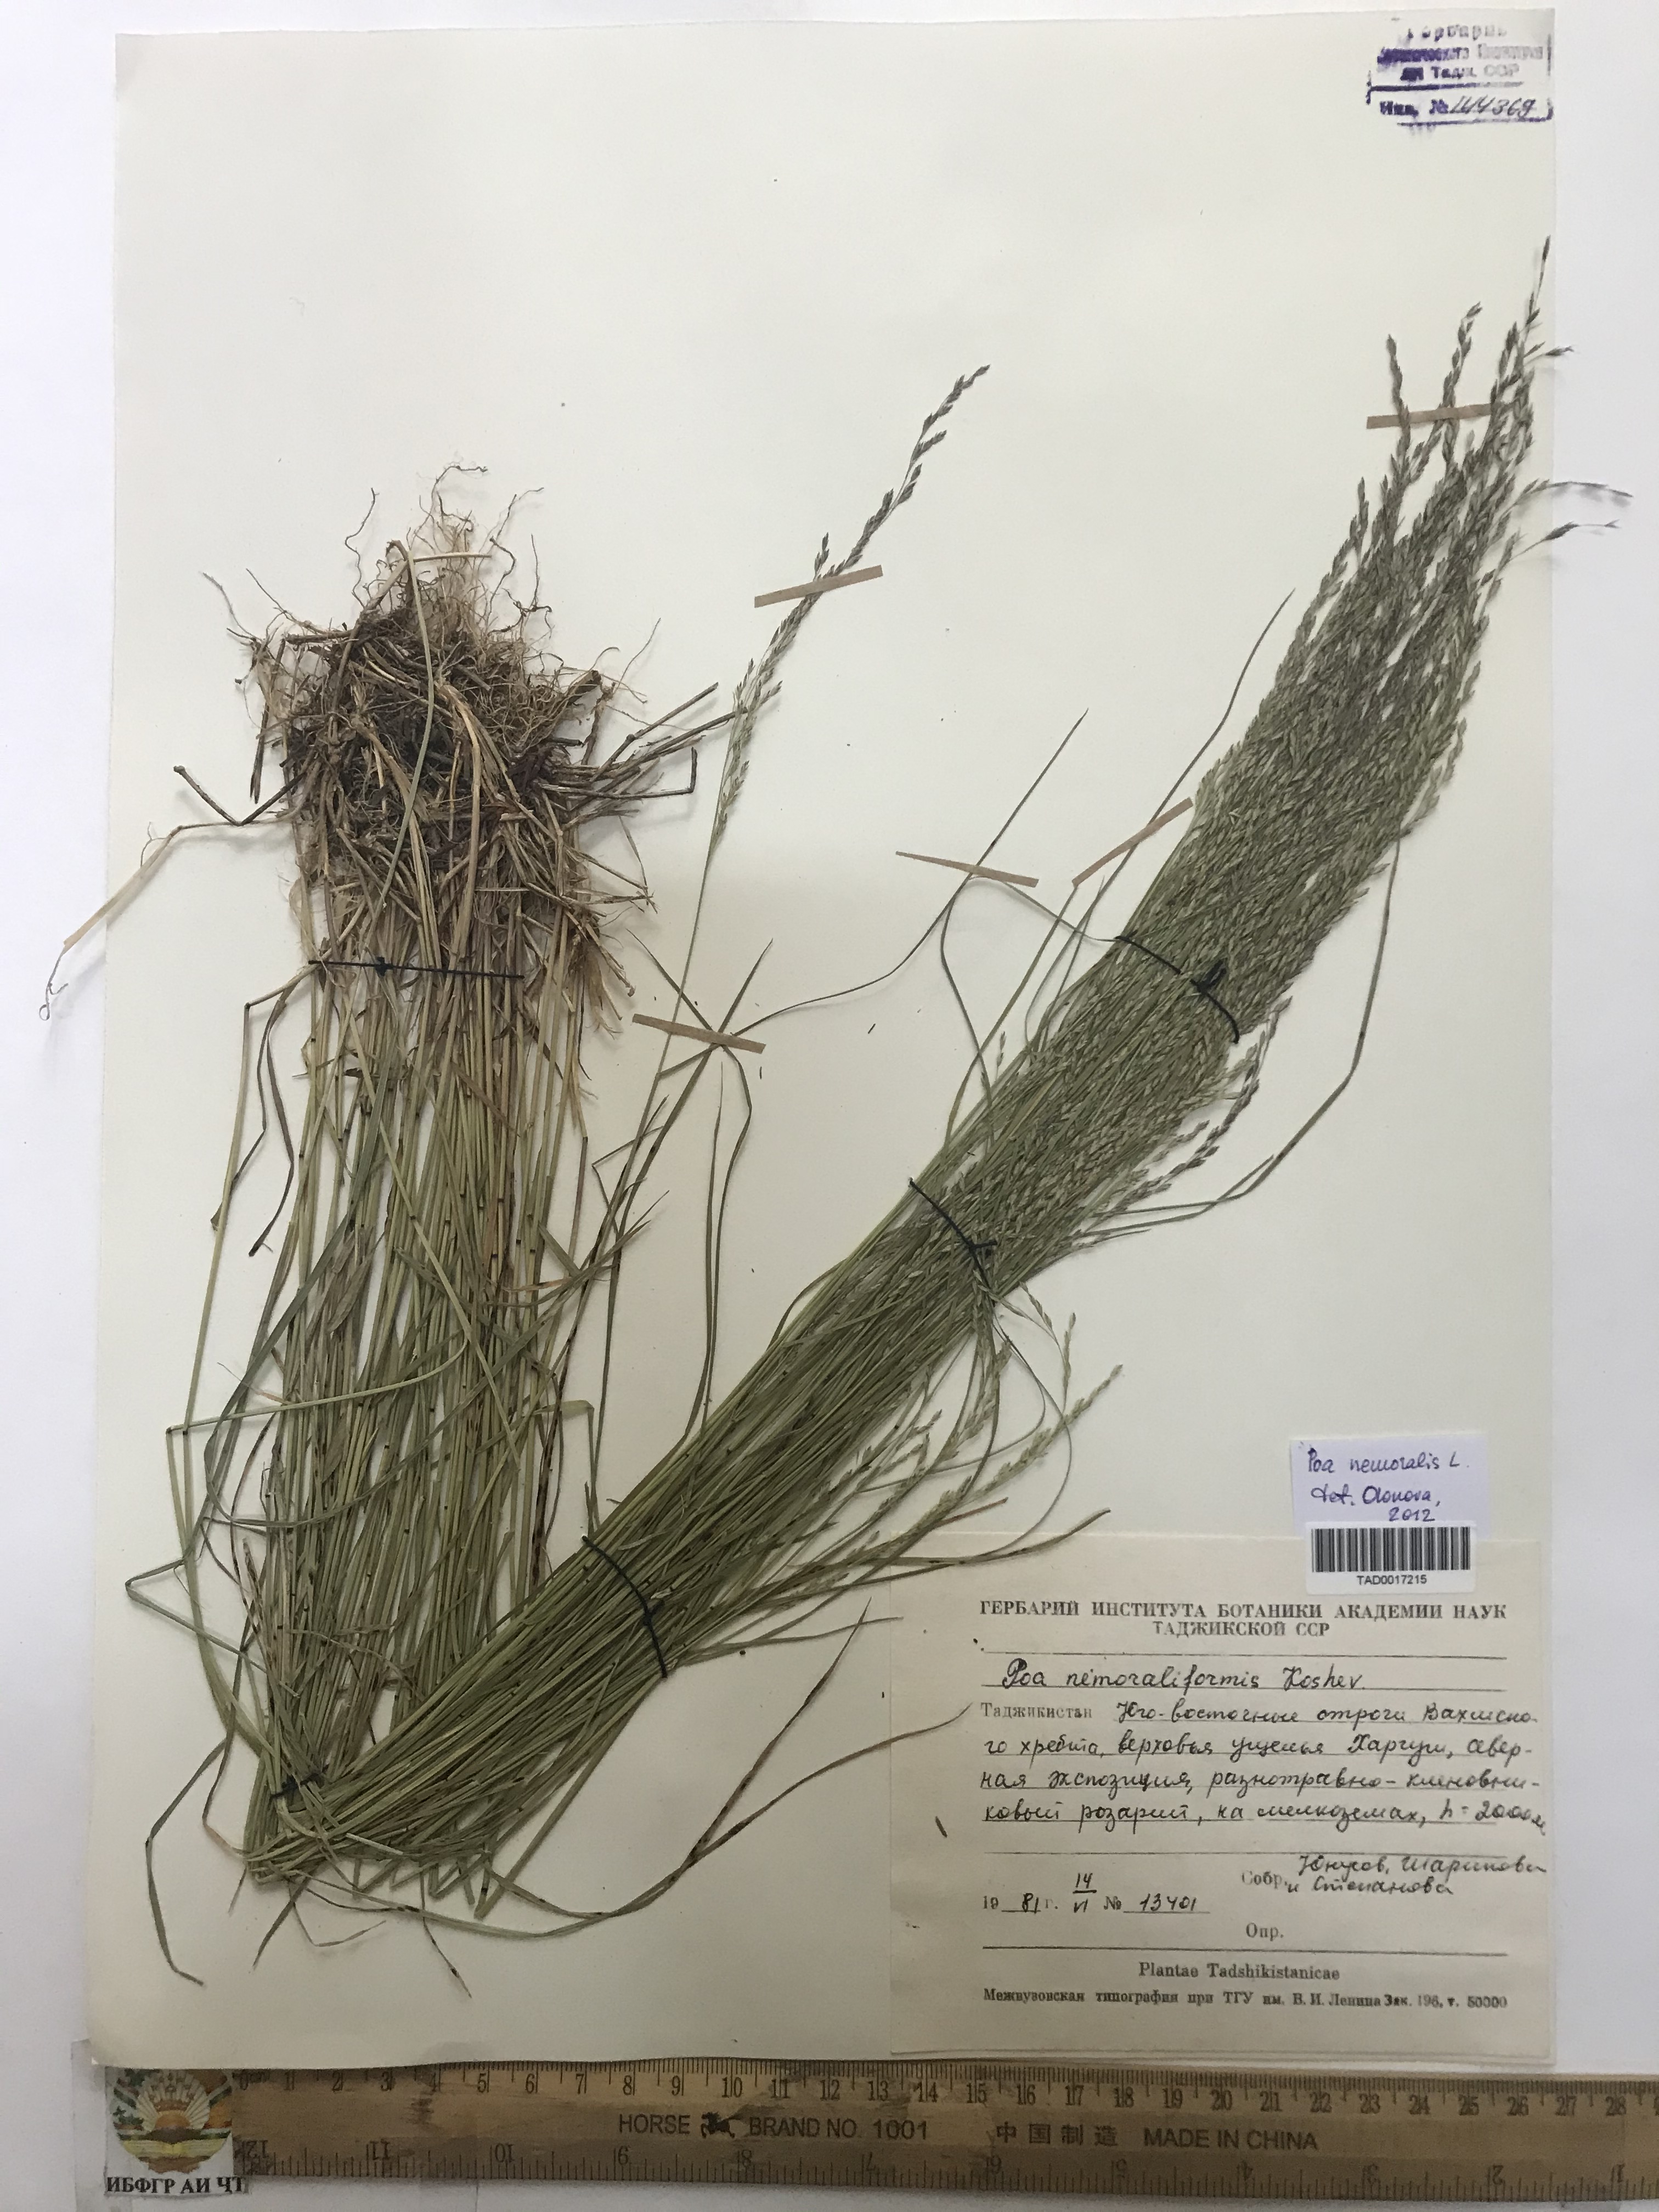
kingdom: Plantae
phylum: Tracheophyta
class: Liliopsida
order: Poales
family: Poaceae
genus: Poa
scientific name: Poa urssulensis
